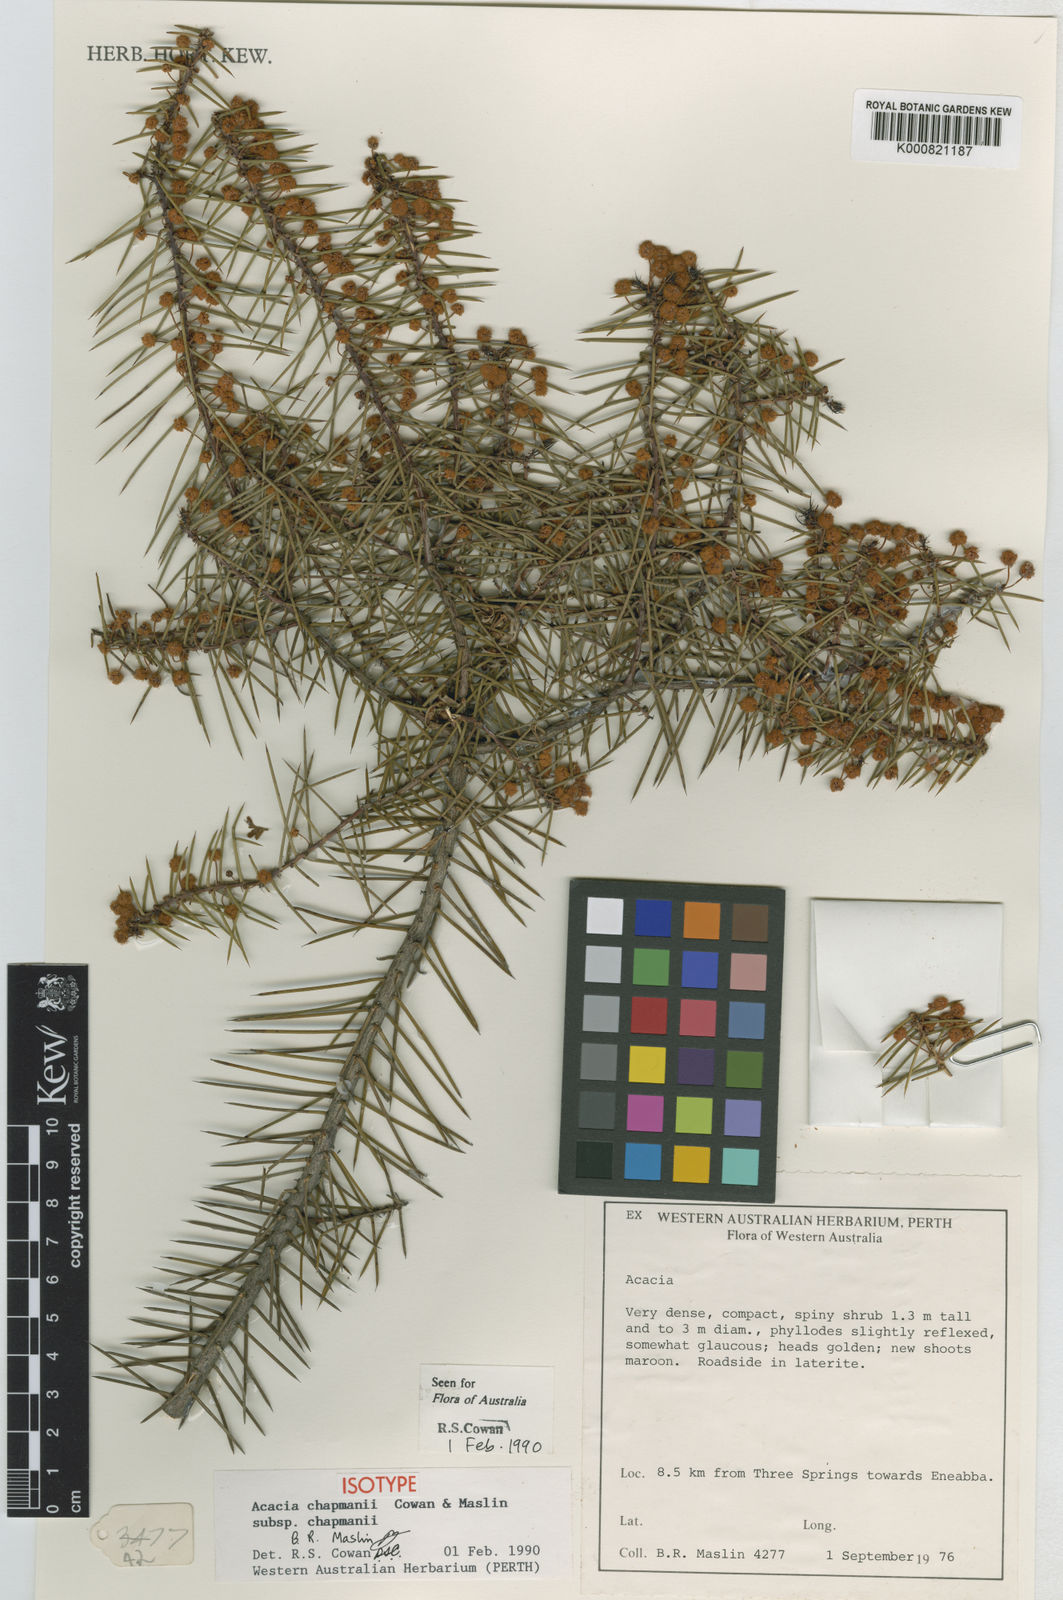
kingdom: Plantae
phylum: Tracheophyta
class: Magnoliopsida
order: Fabales
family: Fabaceae
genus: Acacia
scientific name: Acacia chapmanii
